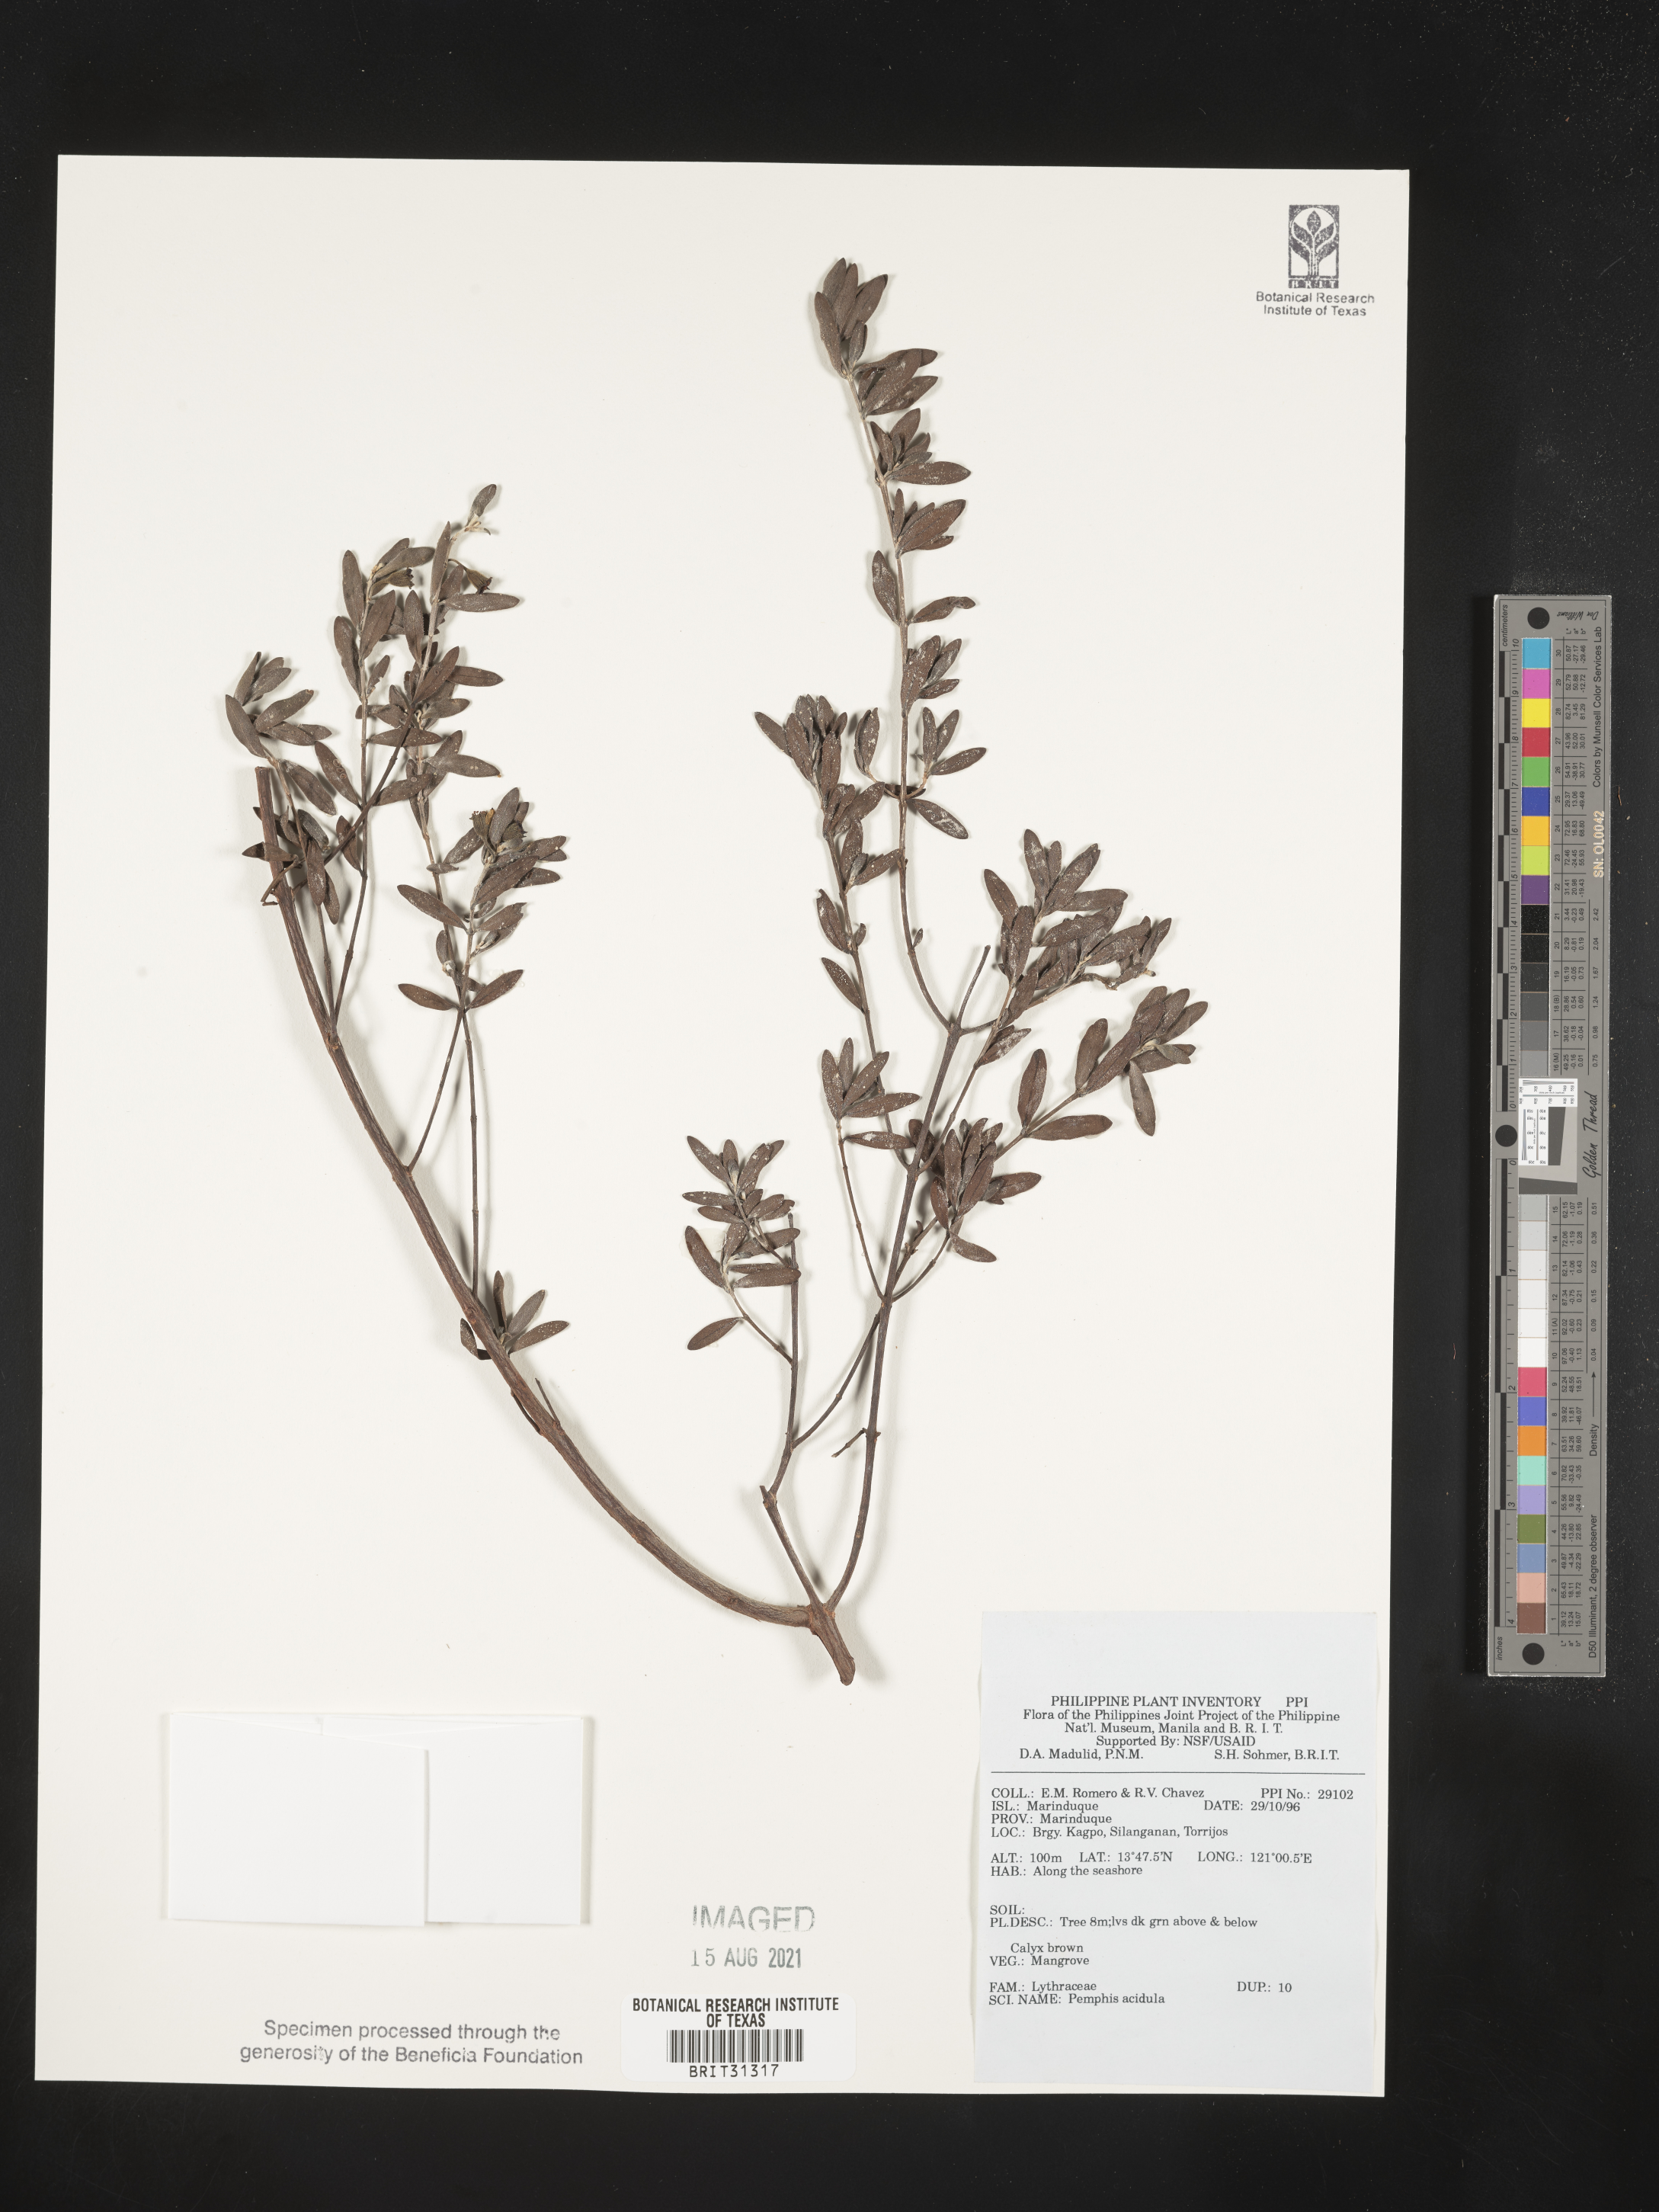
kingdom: Plantae
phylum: Tracheophyta
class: Magnoliopsida
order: Myrtales
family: Lythraceae
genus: Pemphis
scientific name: Pemphis acidula
